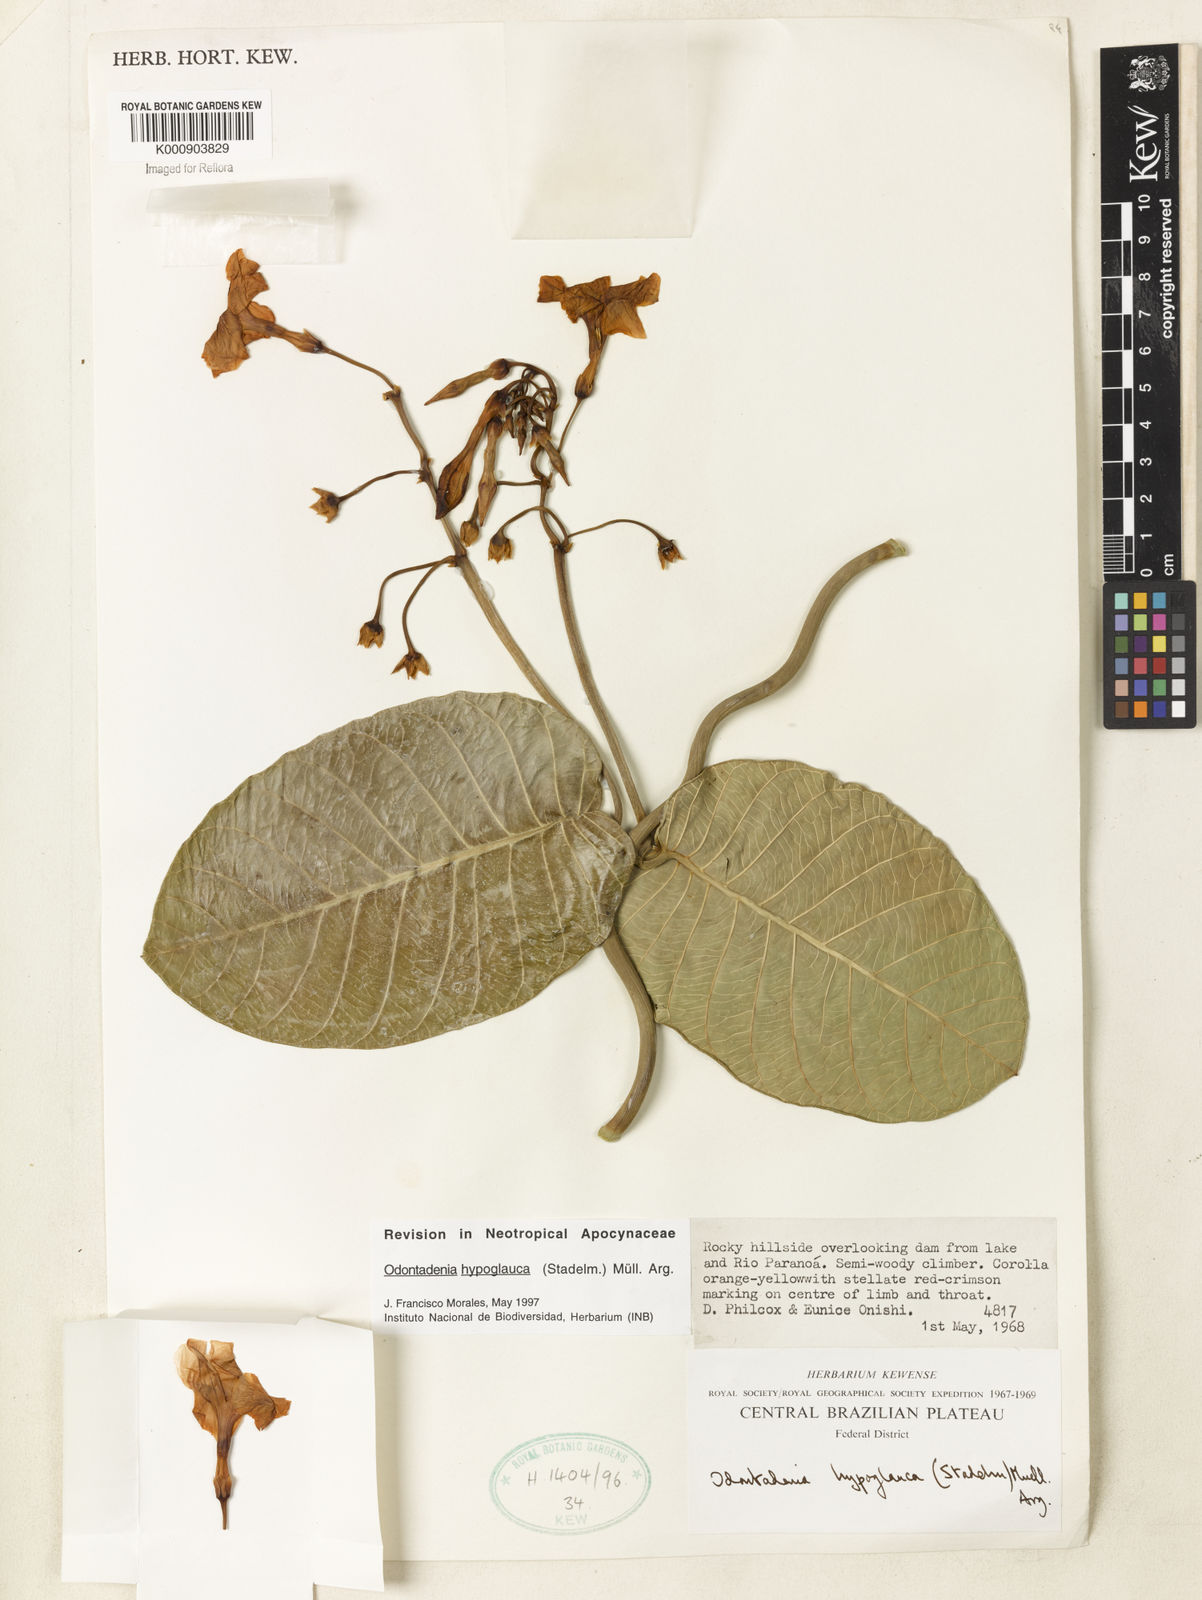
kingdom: Plantae
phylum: Tracheophyta
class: Magnoliopsida
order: Gentianales
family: Apocynaceae
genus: Odontadenia
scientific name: Odontadenia
